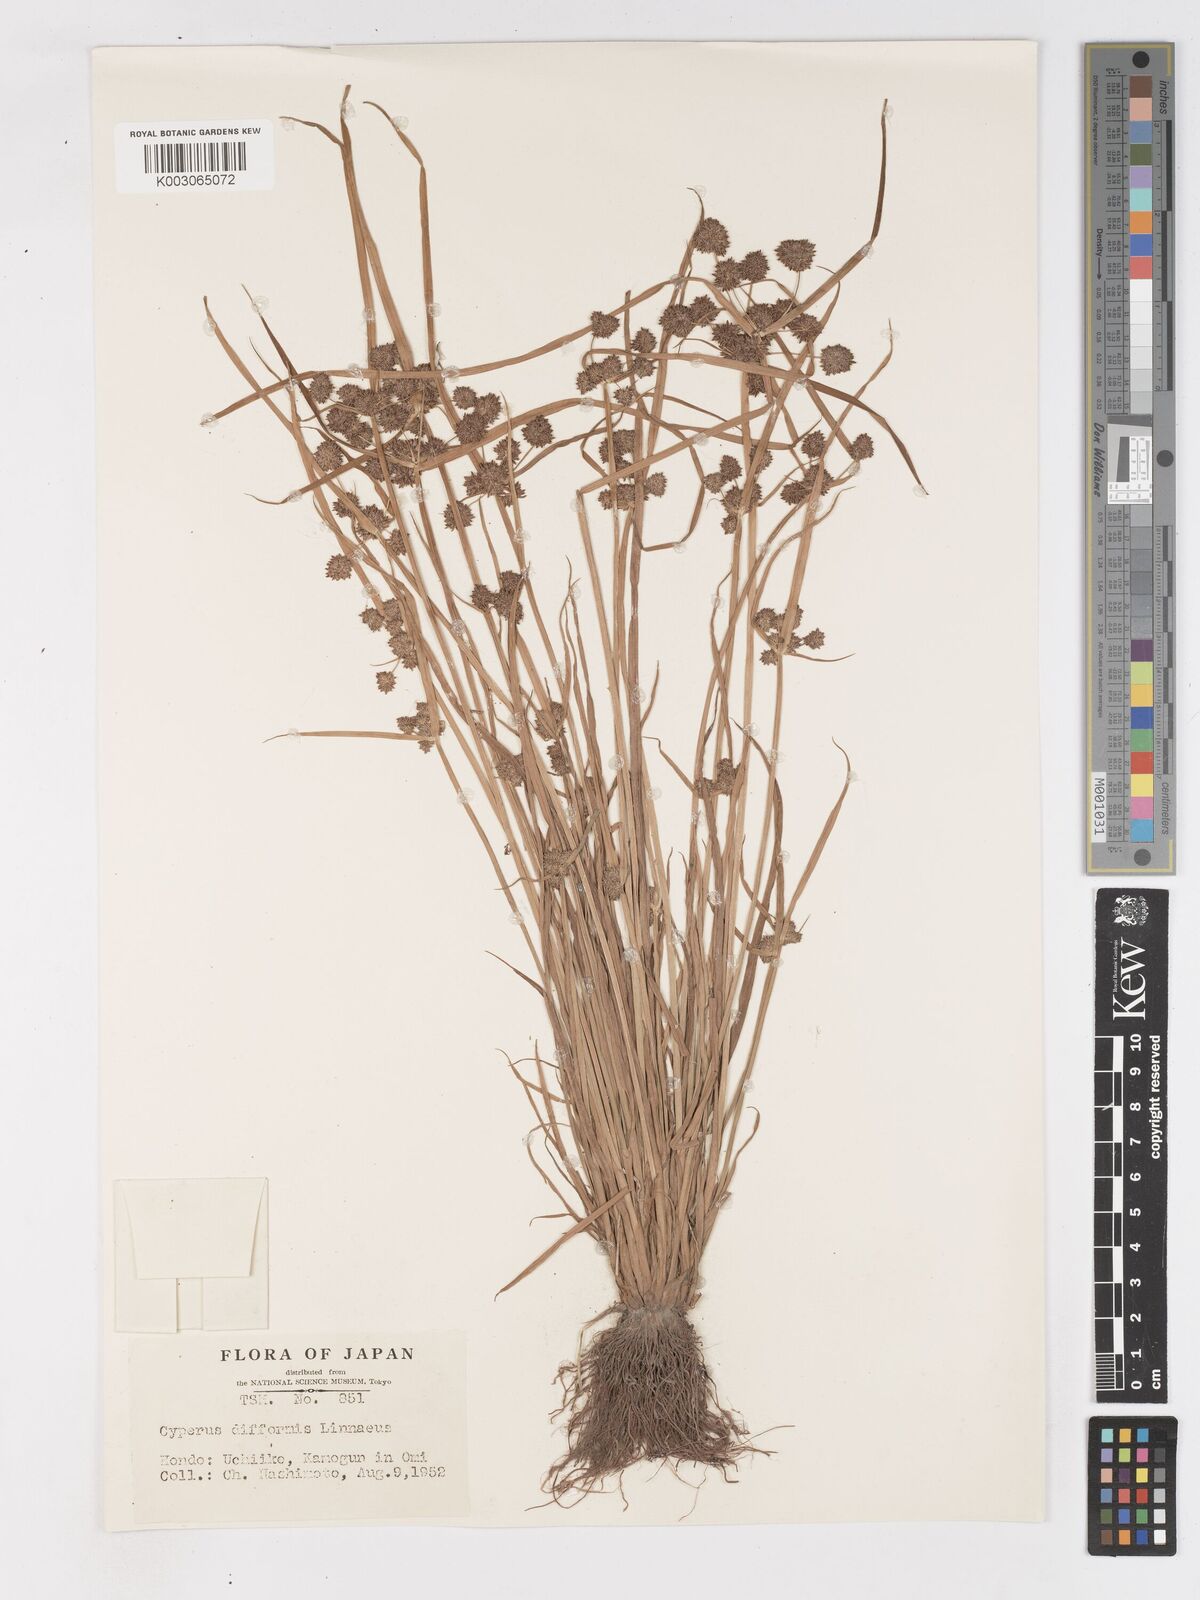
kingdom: Plantae
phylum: Tracheophyta
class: Liliopsida
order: Poales
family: Cyperaceae
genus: Cyperus
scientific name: Cyperus difformis
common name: Variable flatsedge
